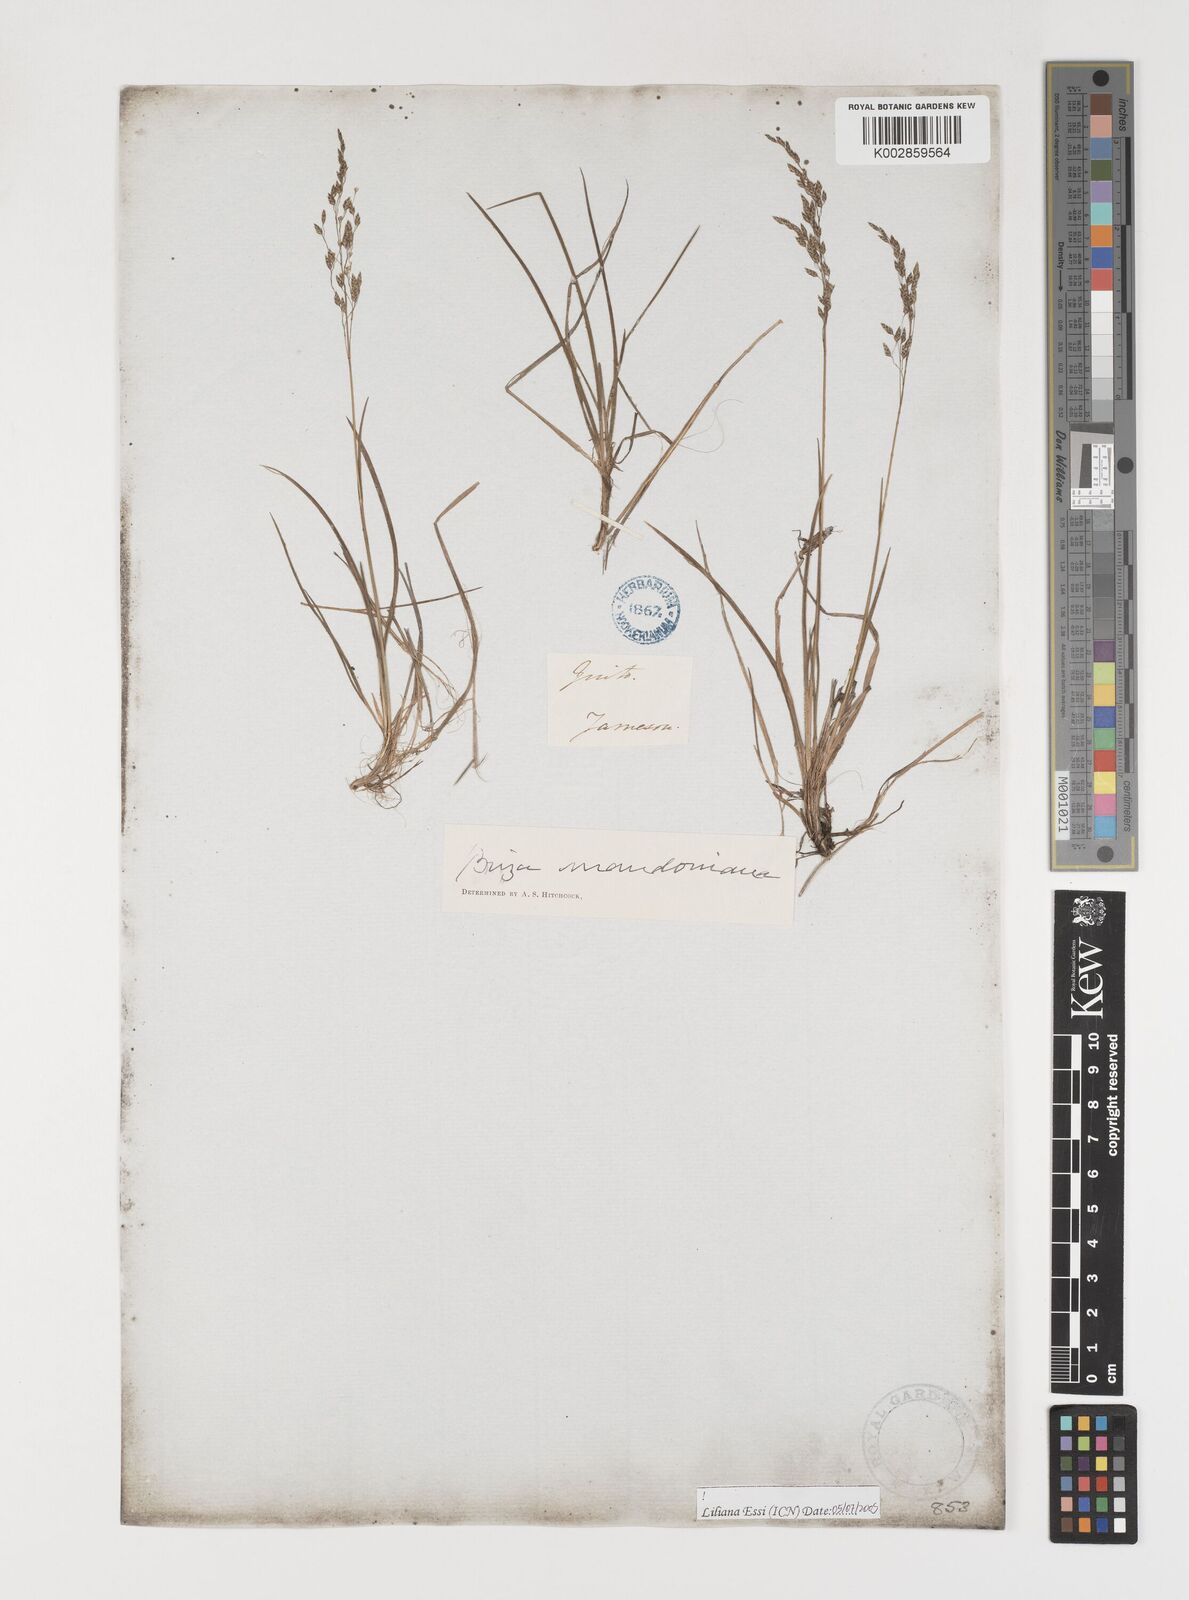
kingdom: Plantae
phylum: Tracheophyta
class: Liliopsida
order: Poales
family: Poaceae
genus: Poidium
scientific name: Poidium monandrum
